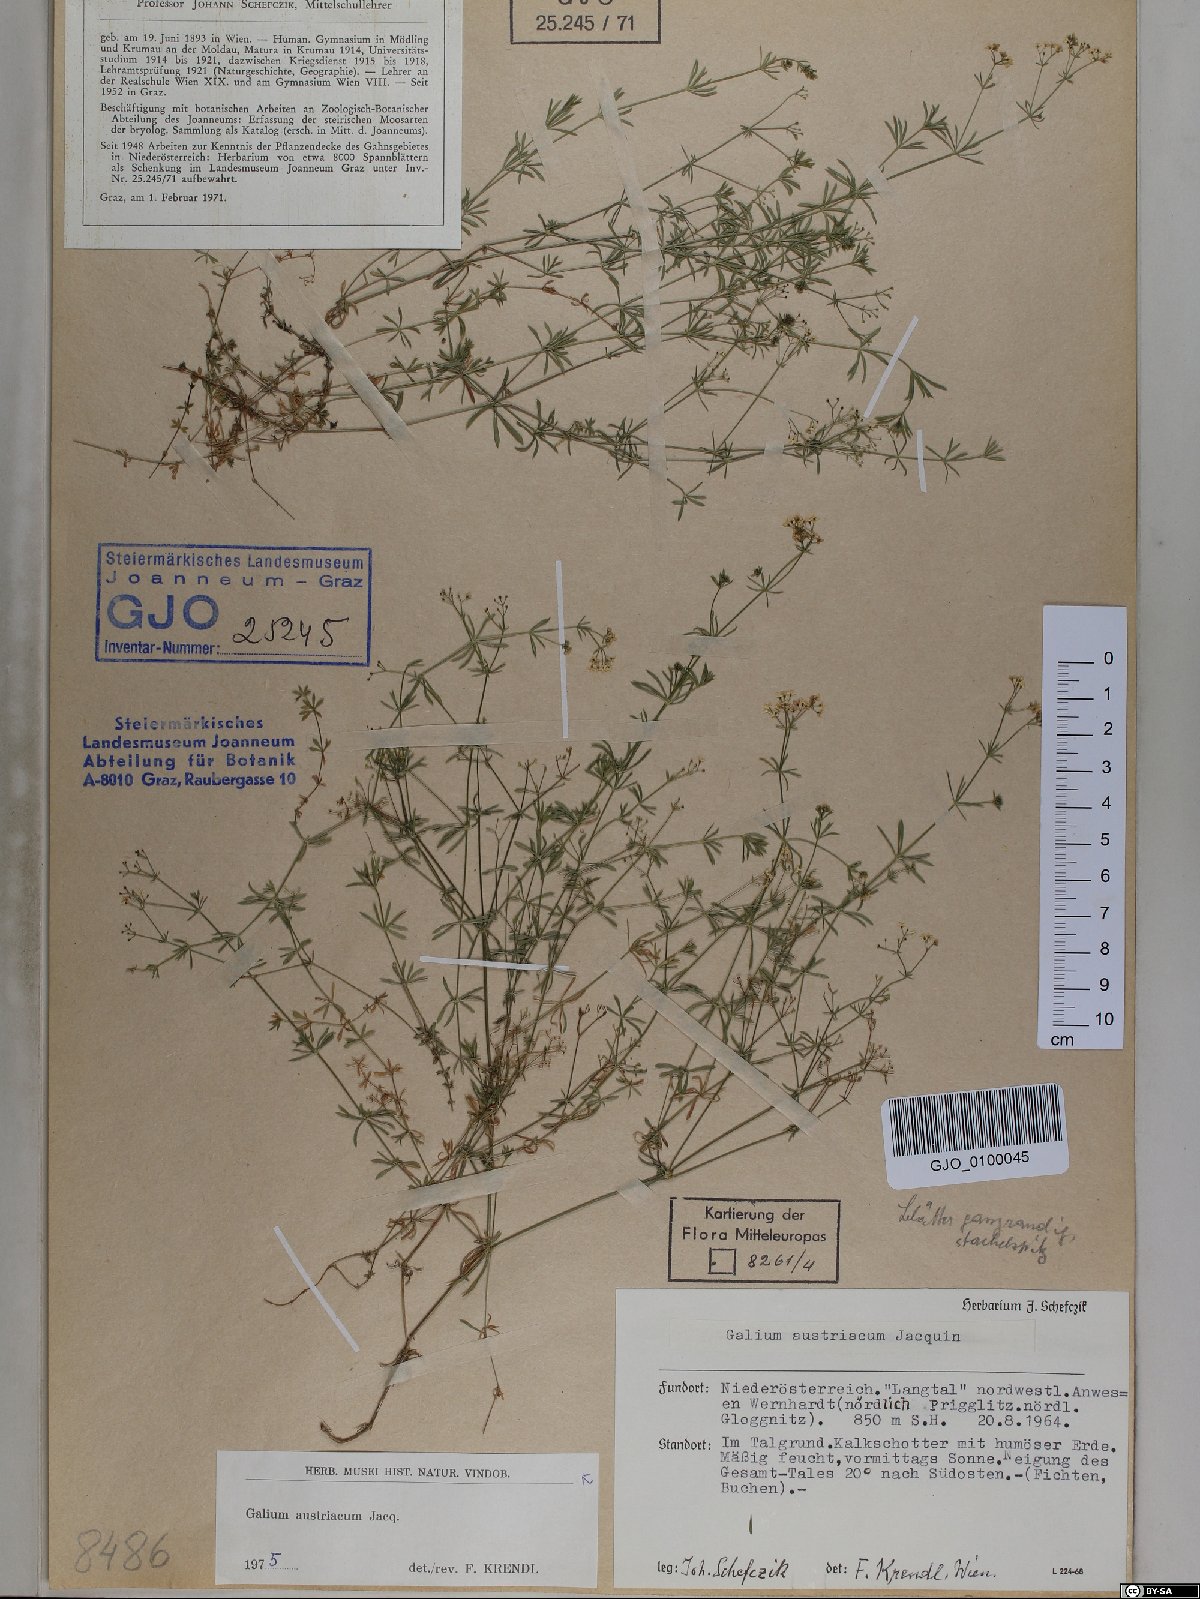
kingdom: Plantae
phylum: Tracheophyta
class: Magnoliopsida
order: Gentianales
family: Rubiaceae
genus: Galium
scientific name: Galium austriacum
